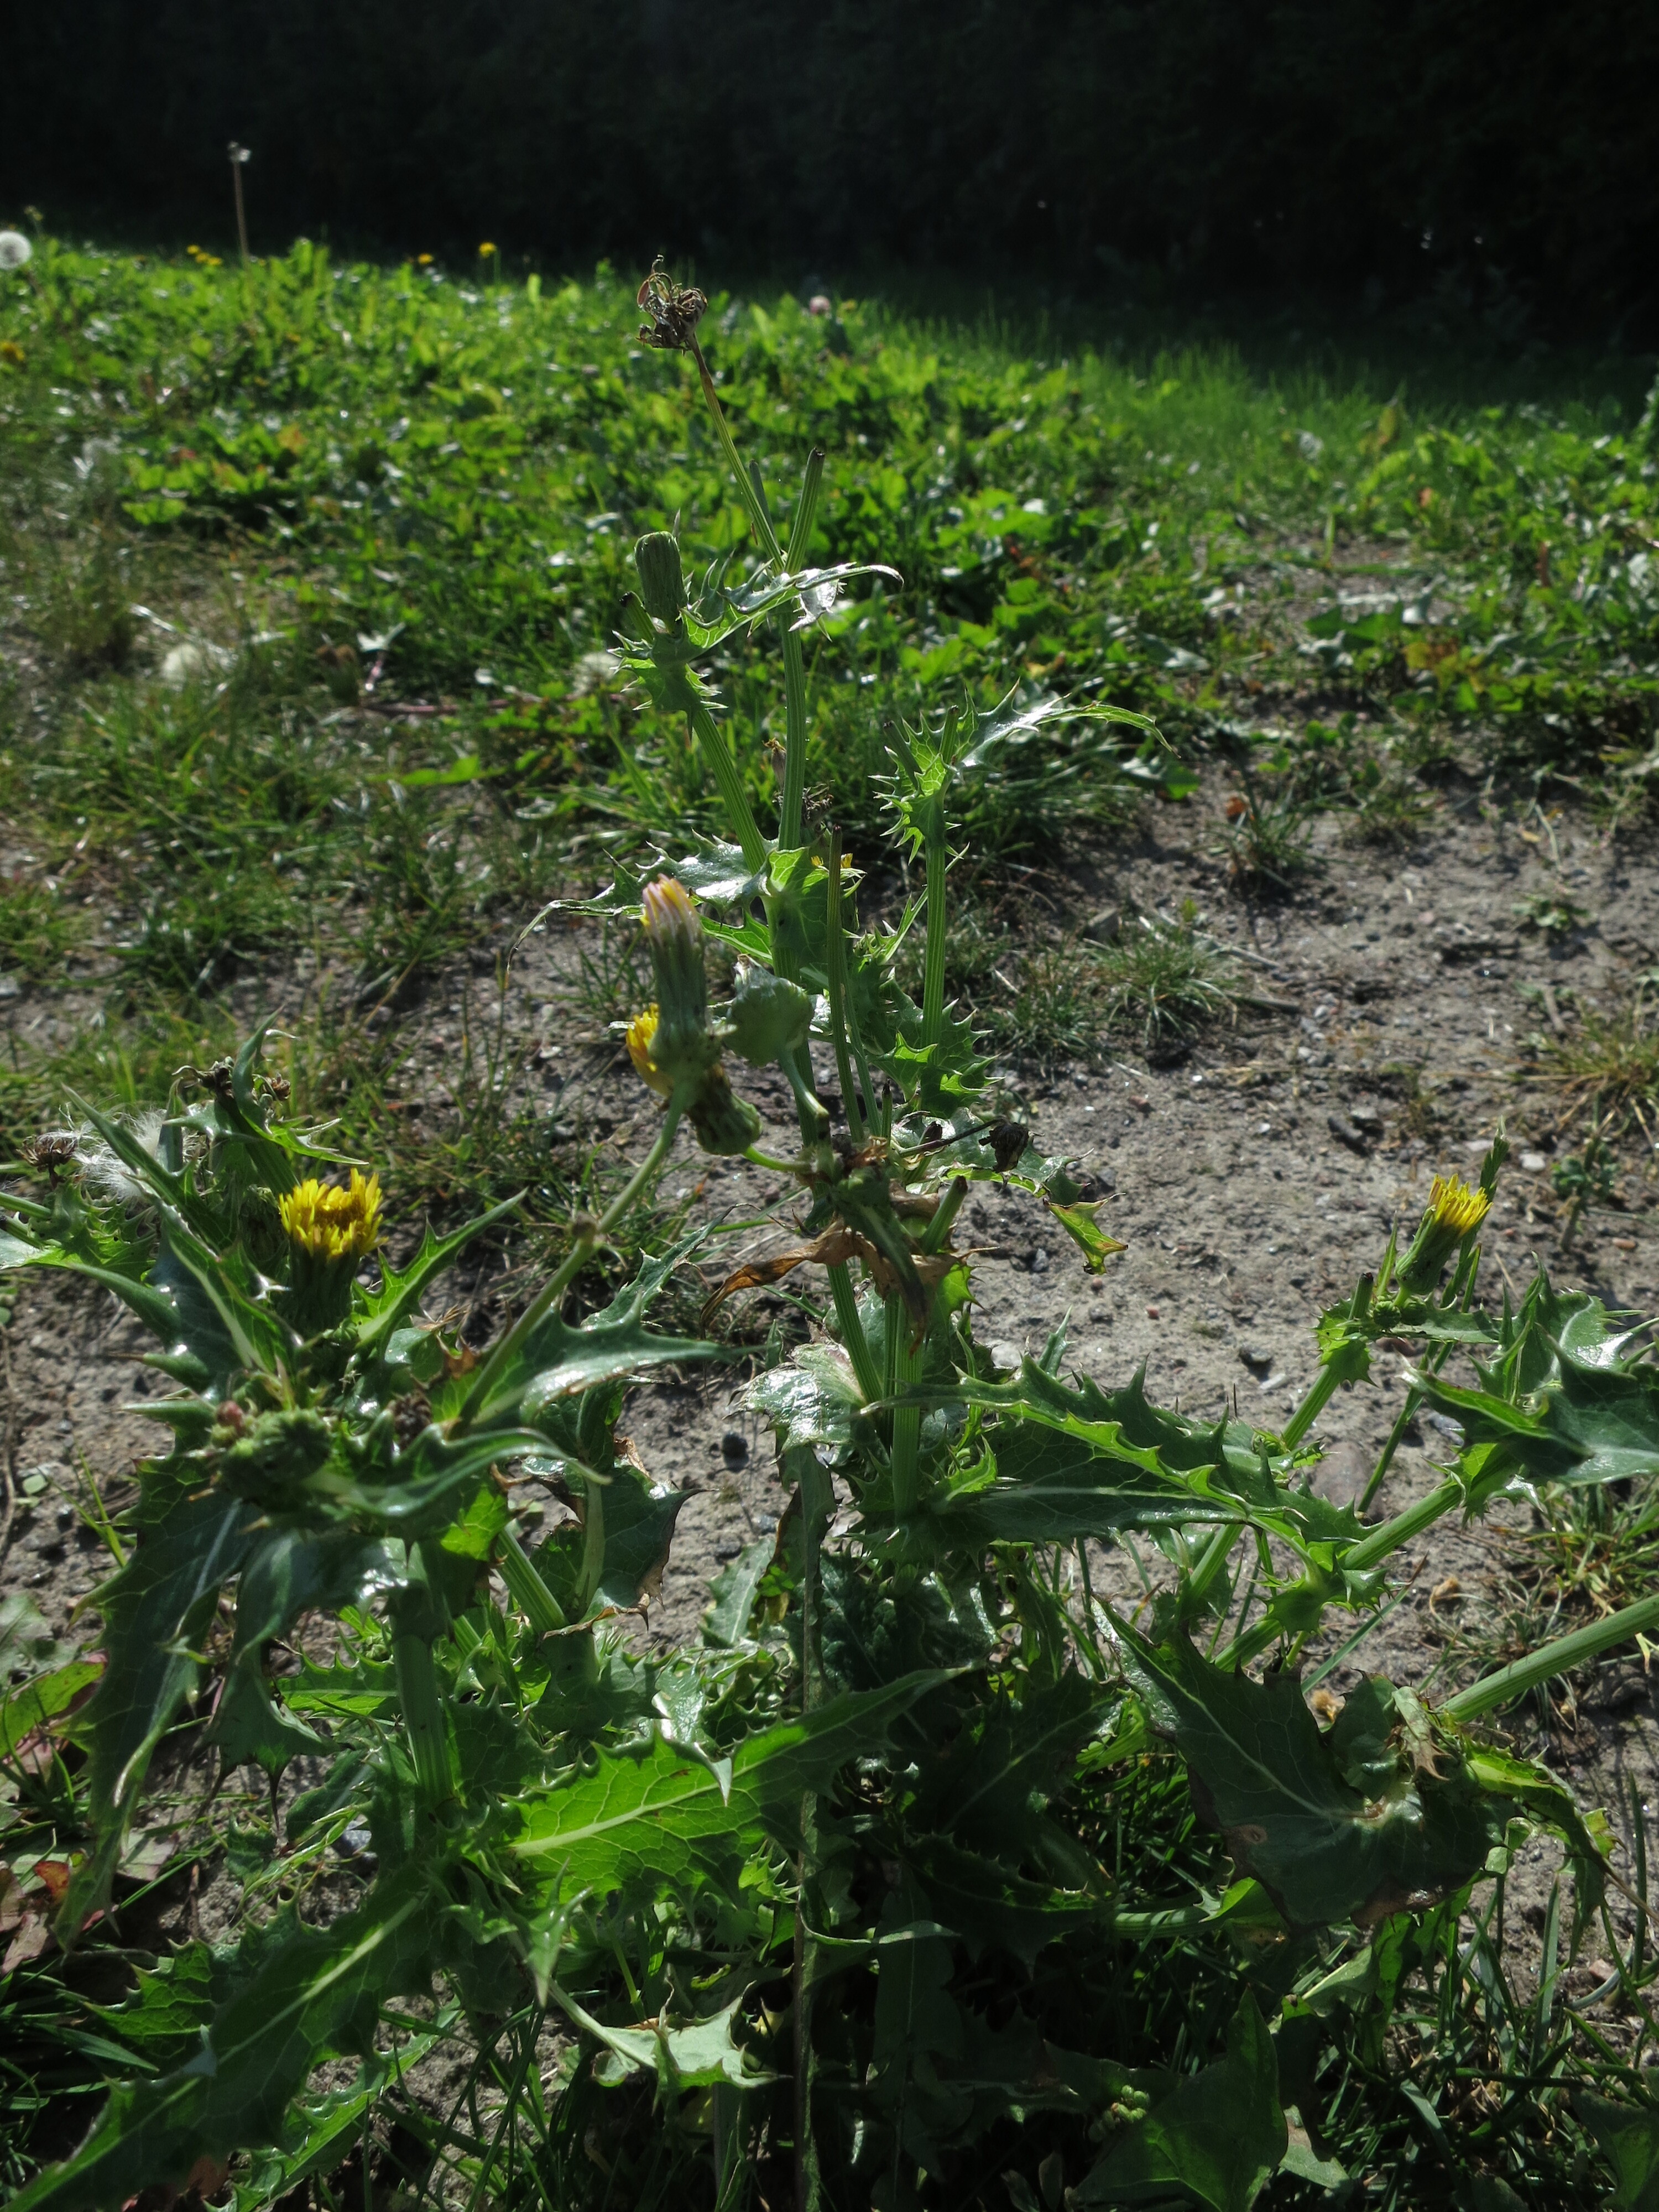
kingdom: Plantae
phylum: Tracheophyta
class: Magnoliopsida
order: Asterales
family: Asteraceae
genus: Sonchus
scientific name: Sonchus asper
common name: Prickly sow-thistle
